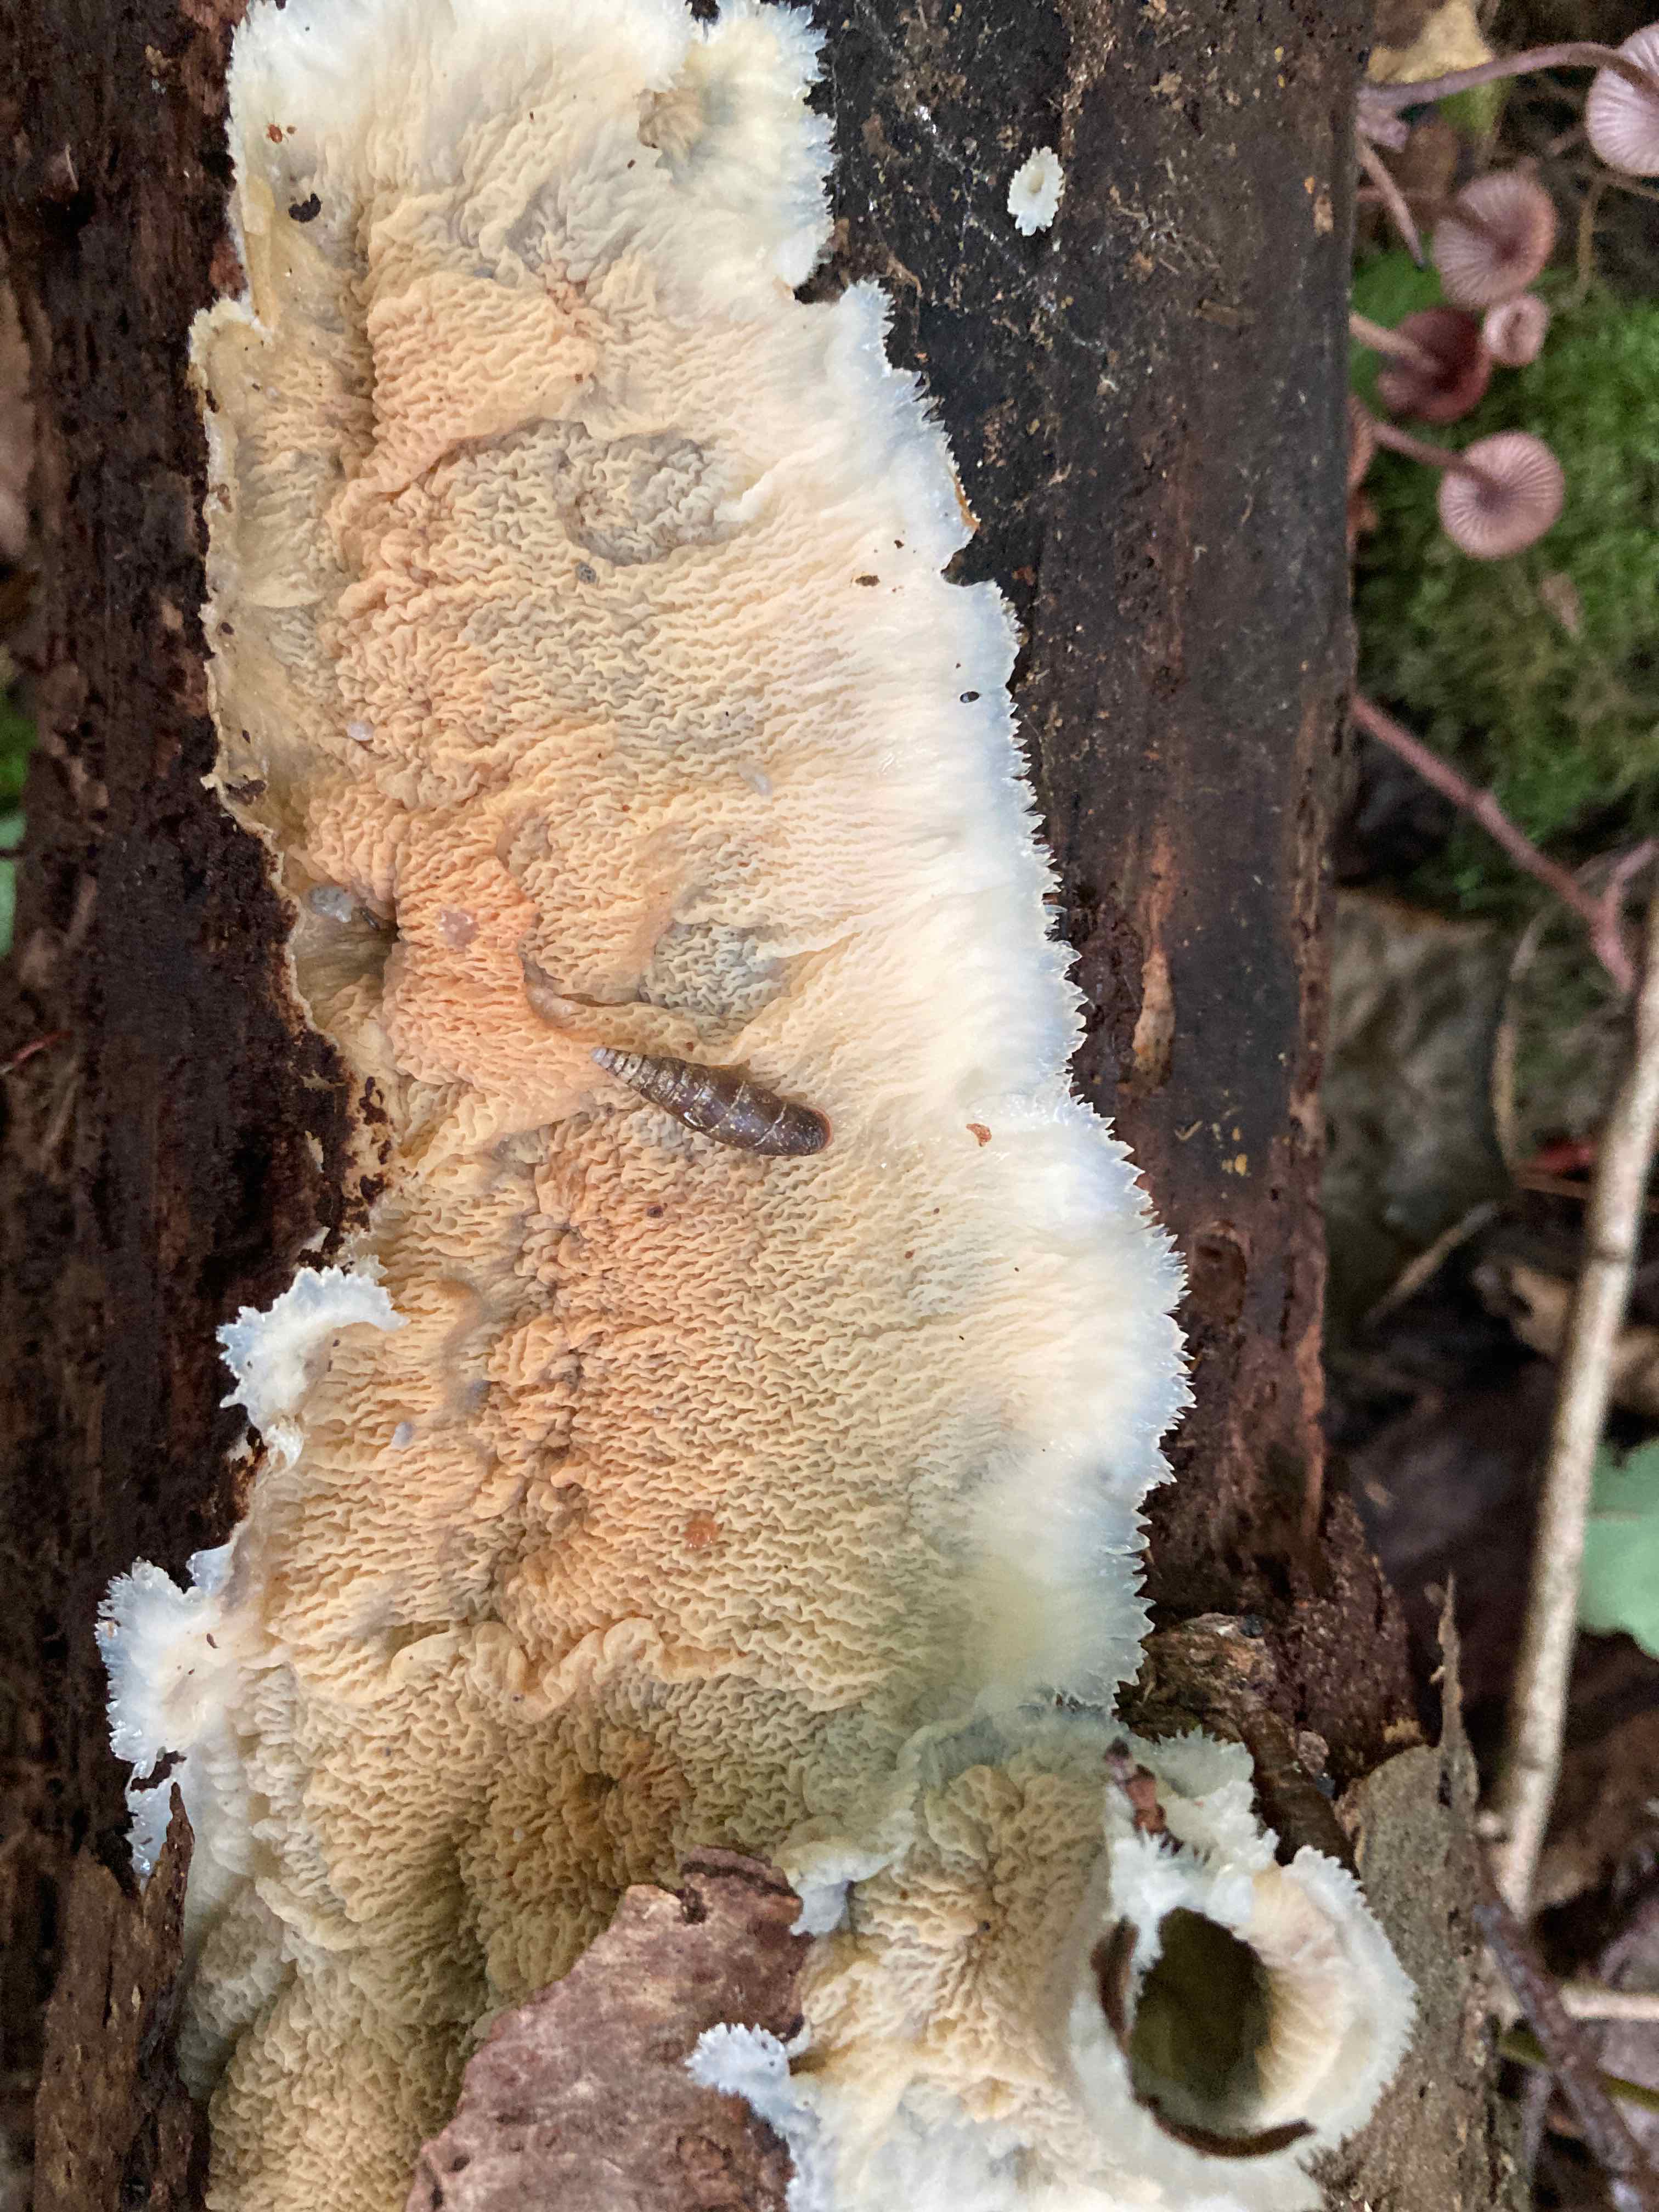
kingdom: Fungi
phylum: Basidiomycota
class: Agaricomycetes
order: Polyporales
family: Meruliaceae
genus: Phlebia
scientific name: Phlebia tremellosa
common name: bævrende åresvamp
